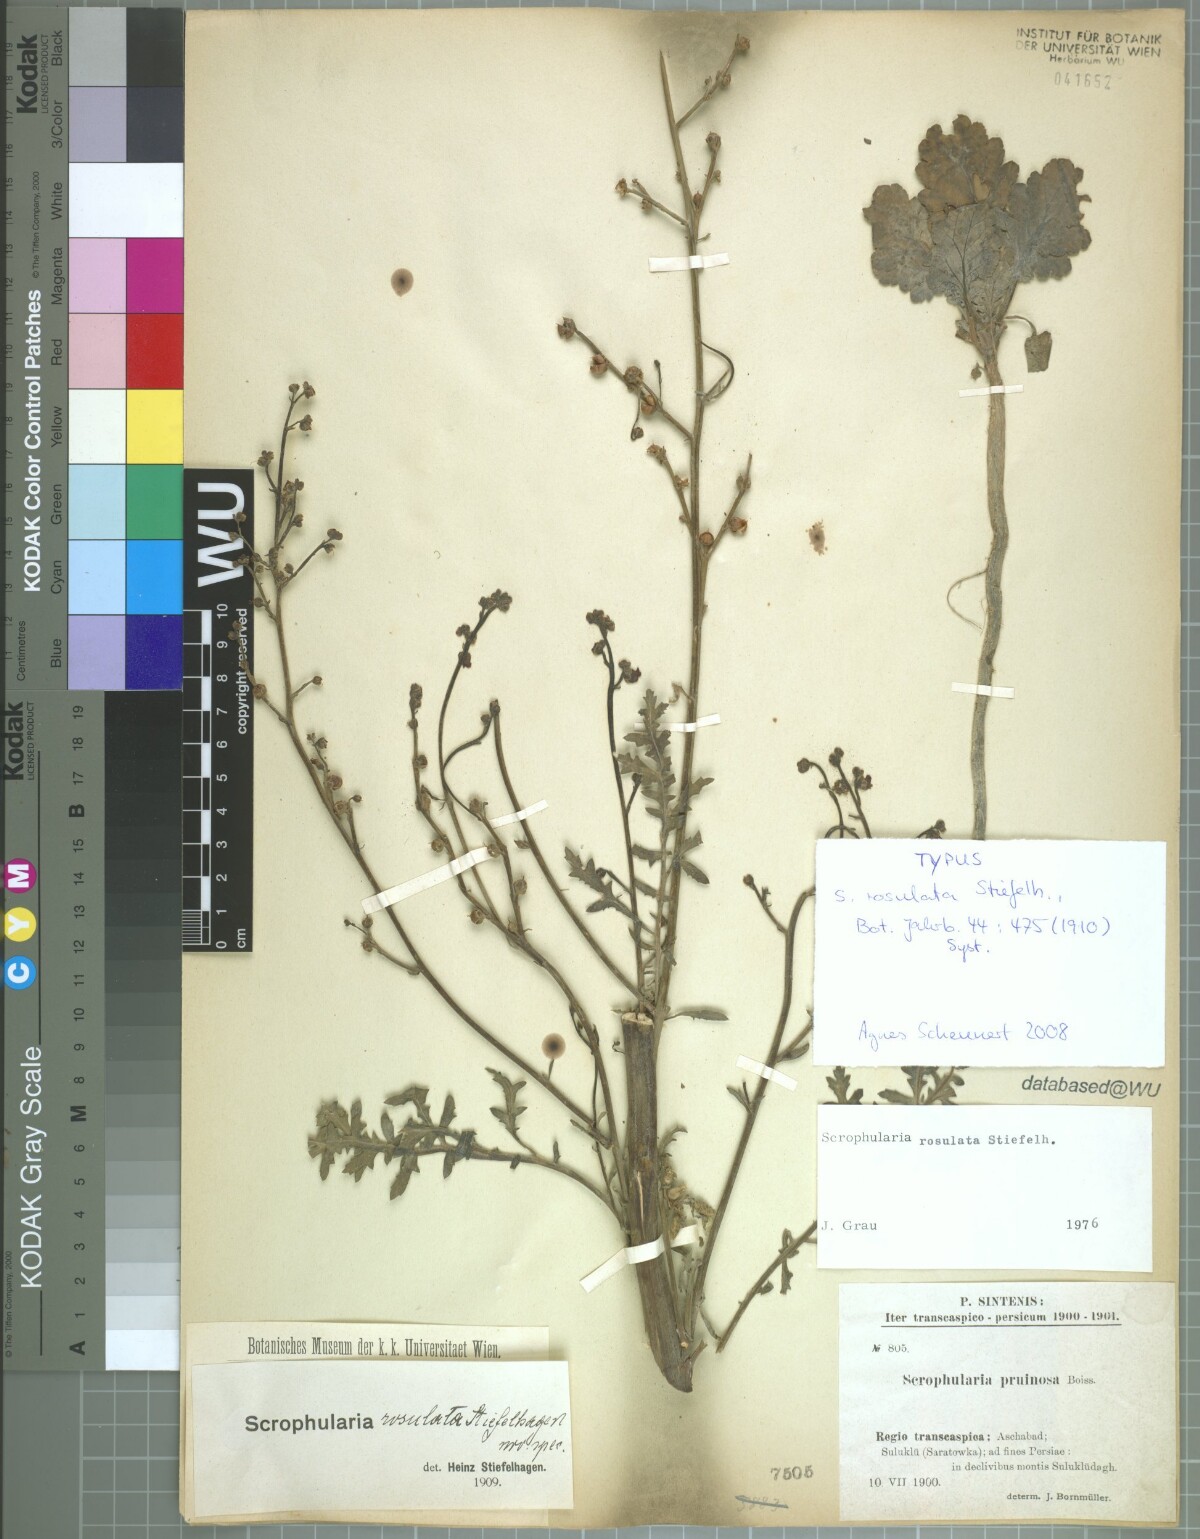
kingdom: Plantae
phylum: Tracheophyta
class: Magnoliopsida
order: Lamiales
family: Scrophulariaceae
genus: Scrophularia
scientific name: Scrophularia rosulata
